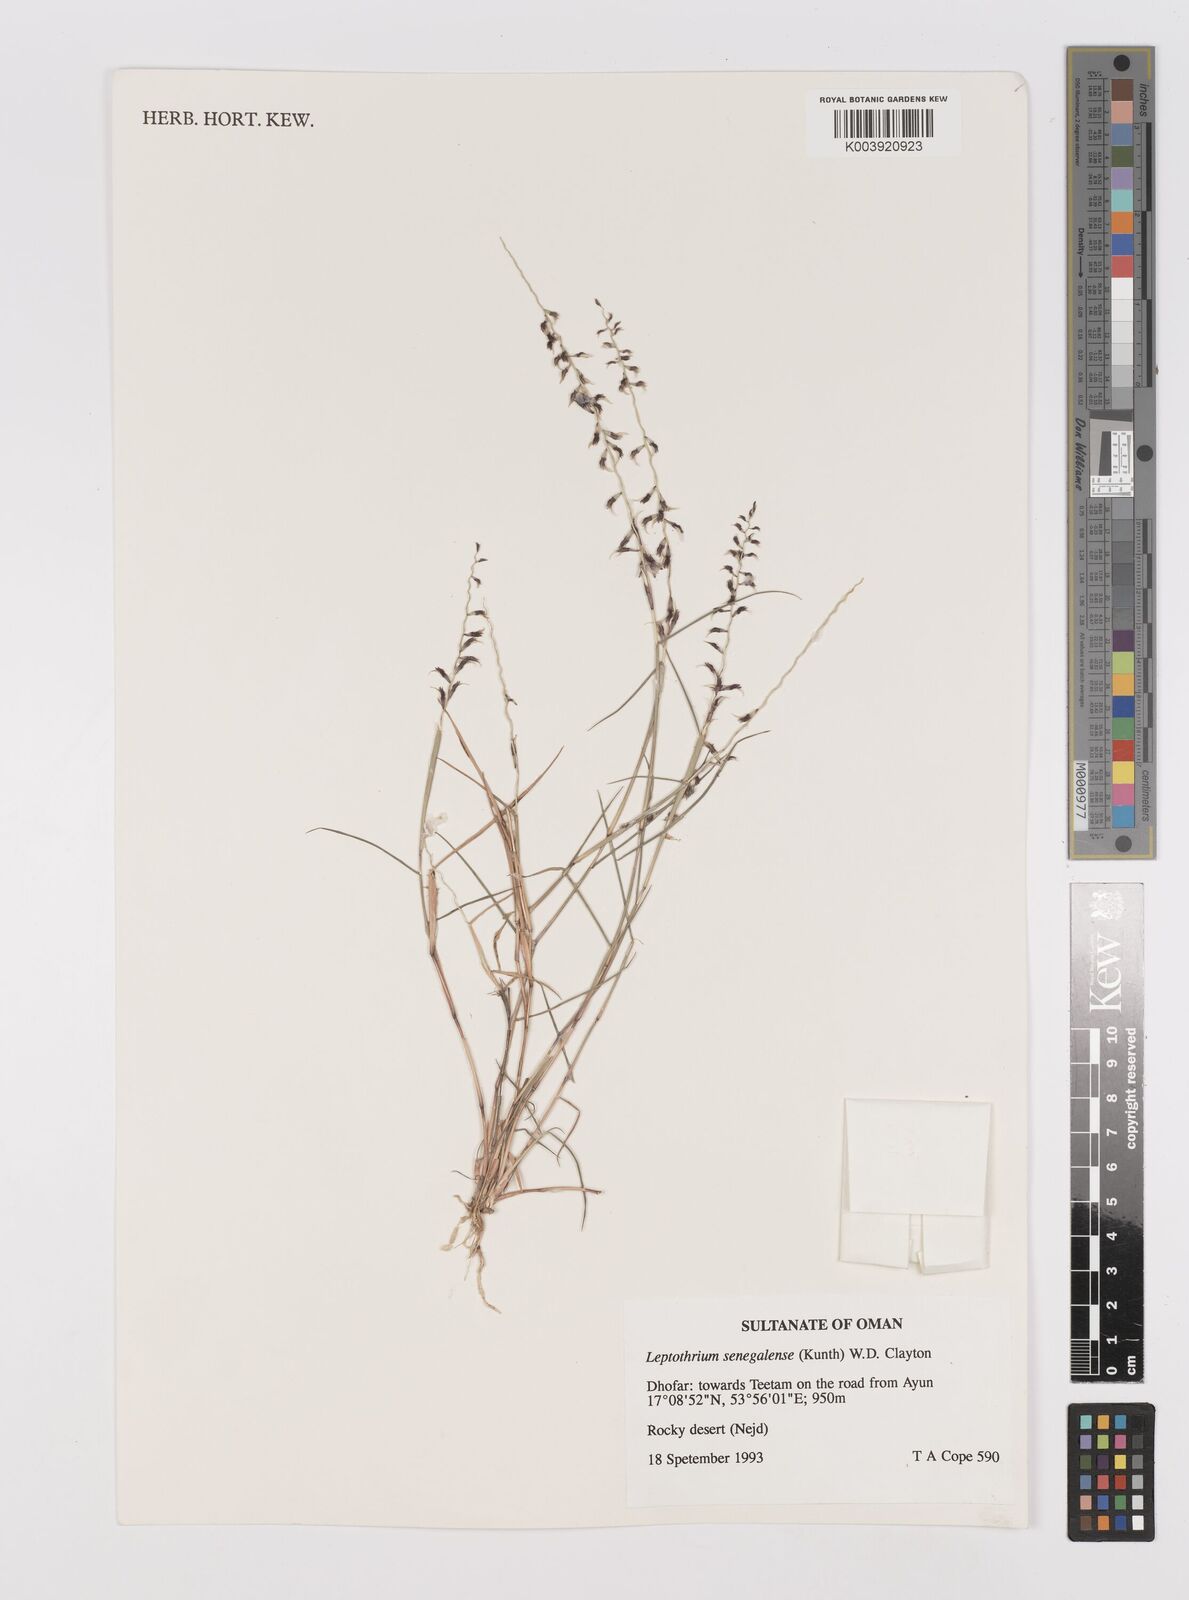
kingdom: Plantae
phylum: Tracheophyta
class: Liliopsida
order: Poales
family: Poaceae
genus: Leptothrium
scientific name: Leptothrium senegalense
